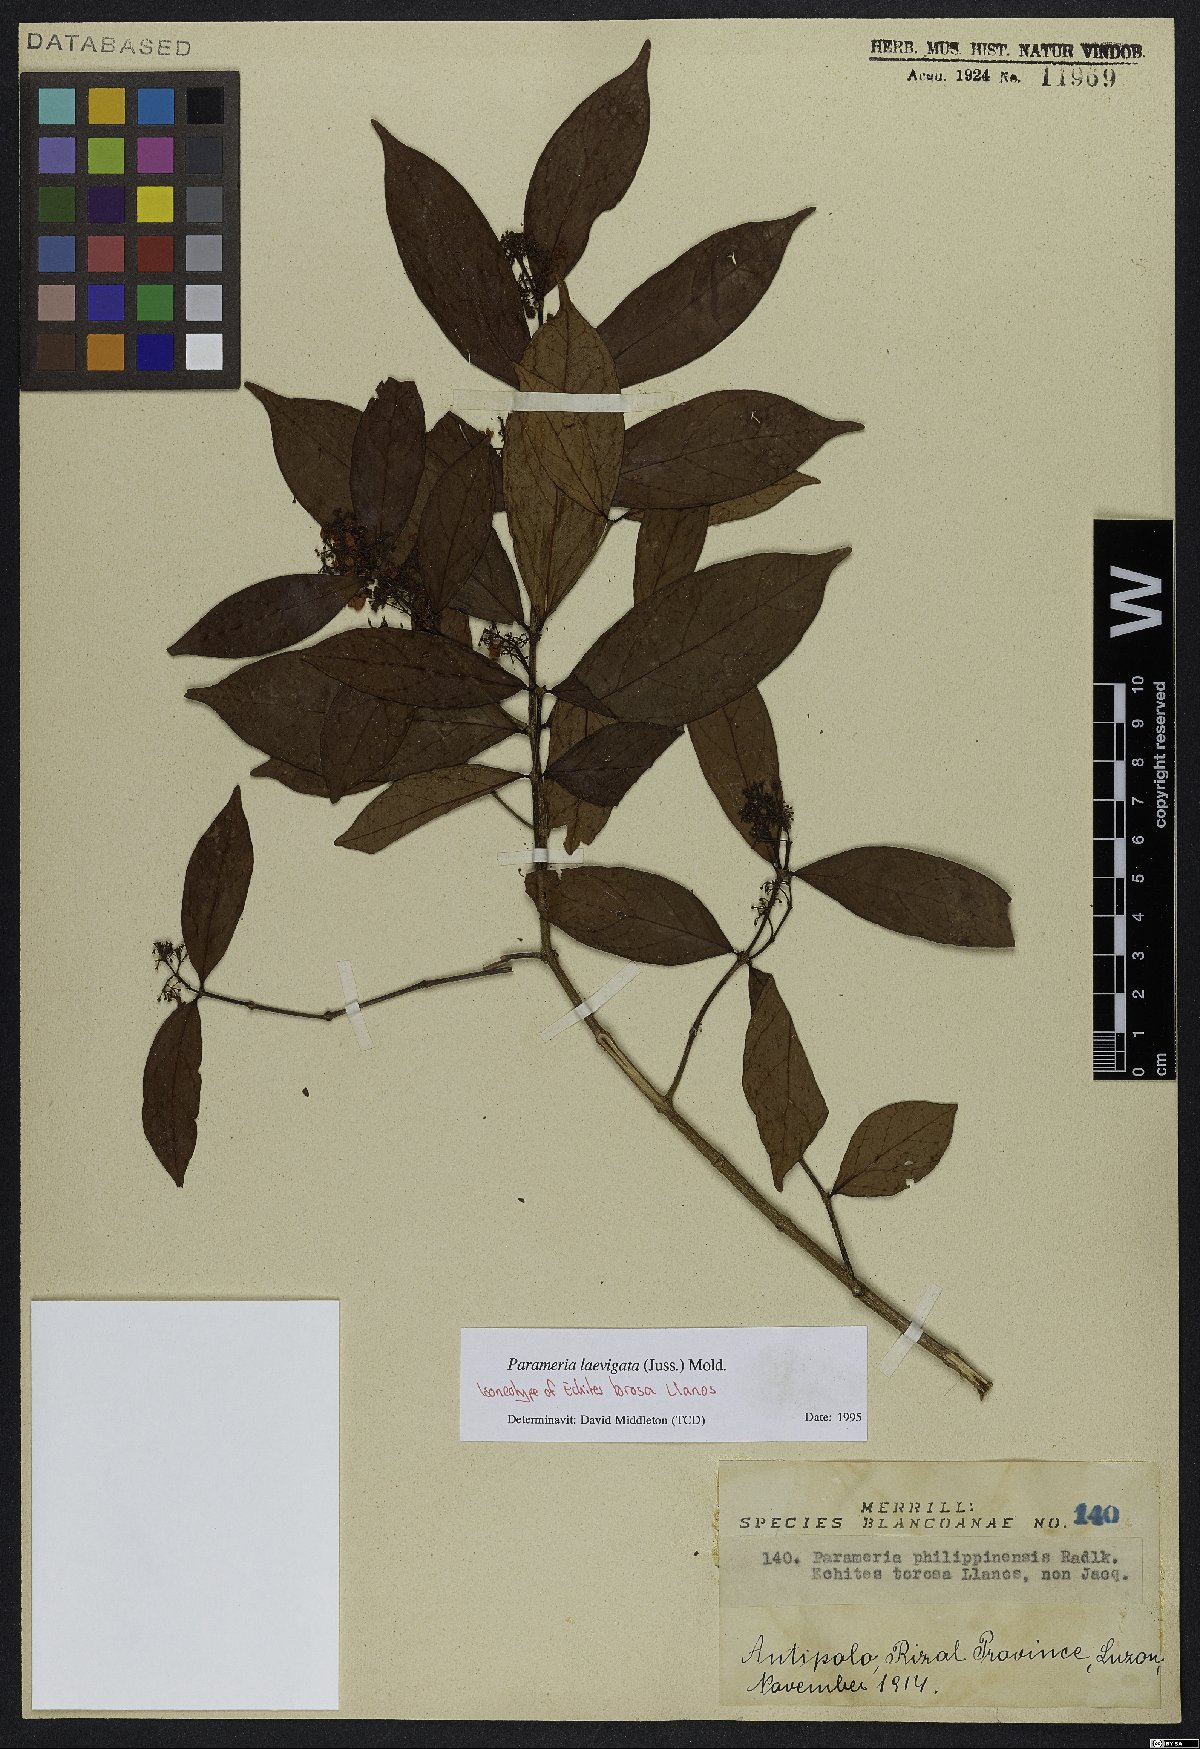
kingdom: Plantae
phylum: Tracheophyta
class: Magnoliopsida
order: Gentianales
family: Apocynaceae
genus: Urceola
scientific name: Urceola laevigata
